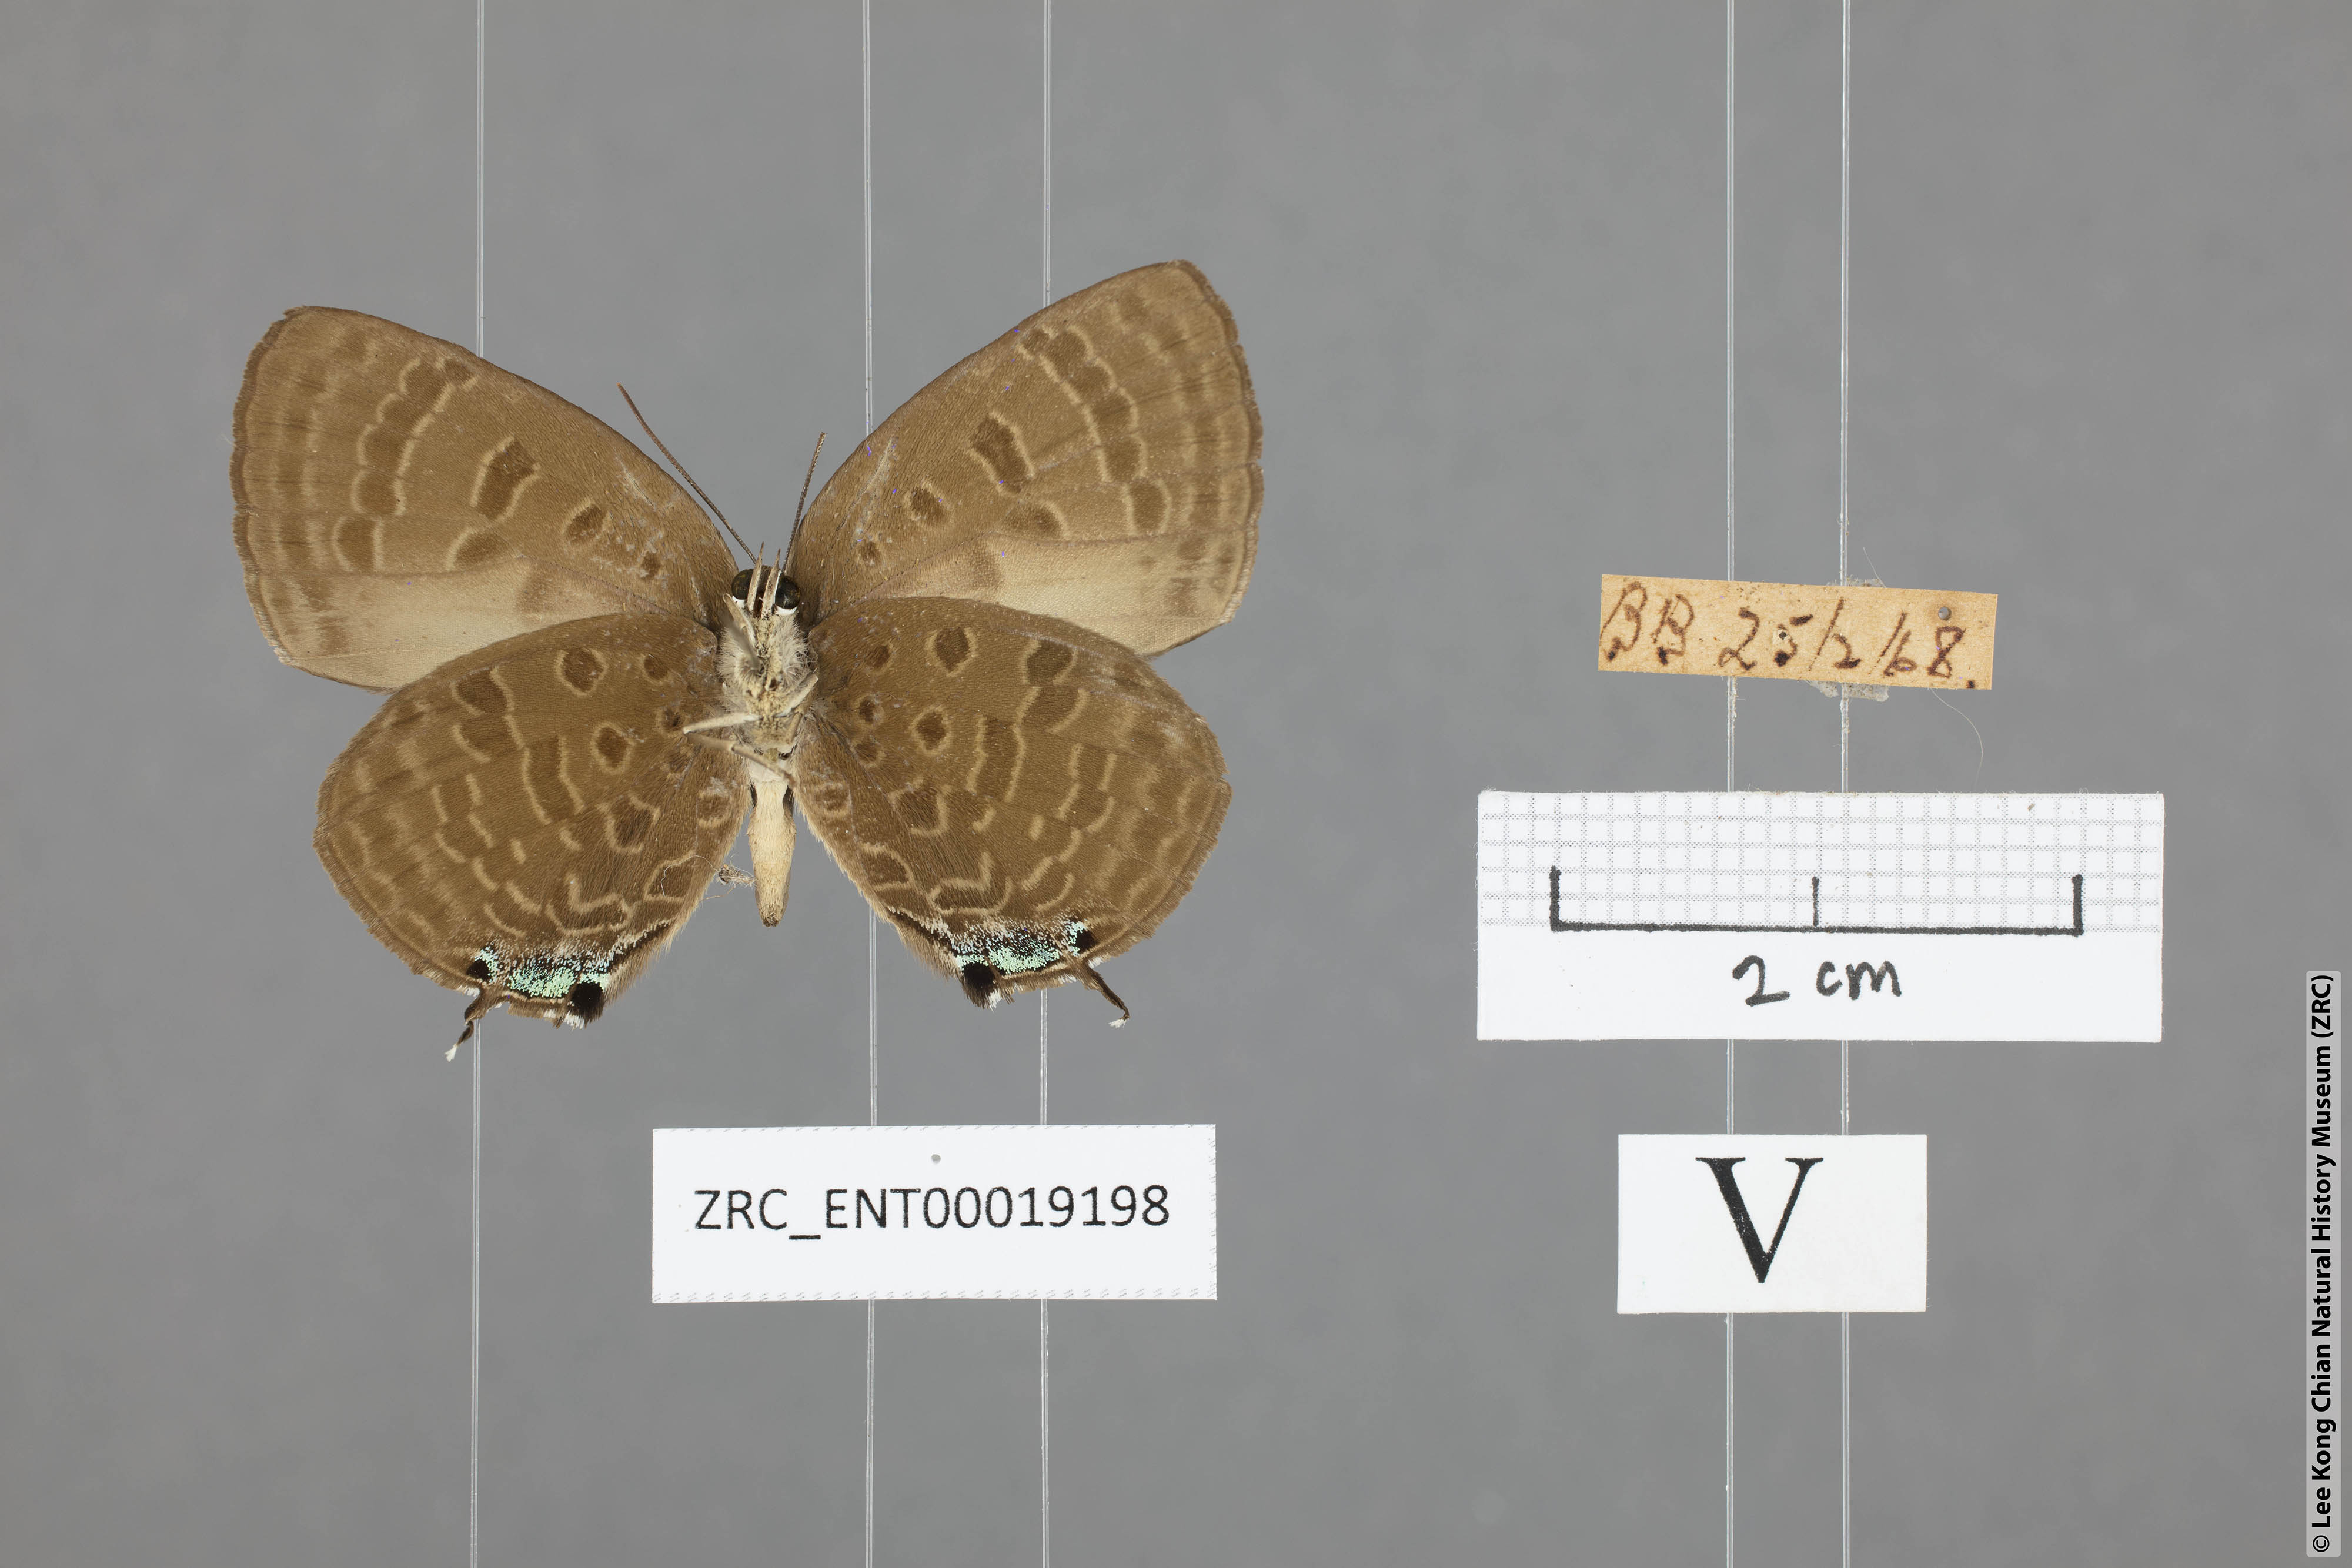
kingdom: Animalia
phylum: Arthropoda
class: Insecta
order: Lepidoptera
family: Lycaenidae
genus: Arhopala
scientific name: Arhopala aroa
